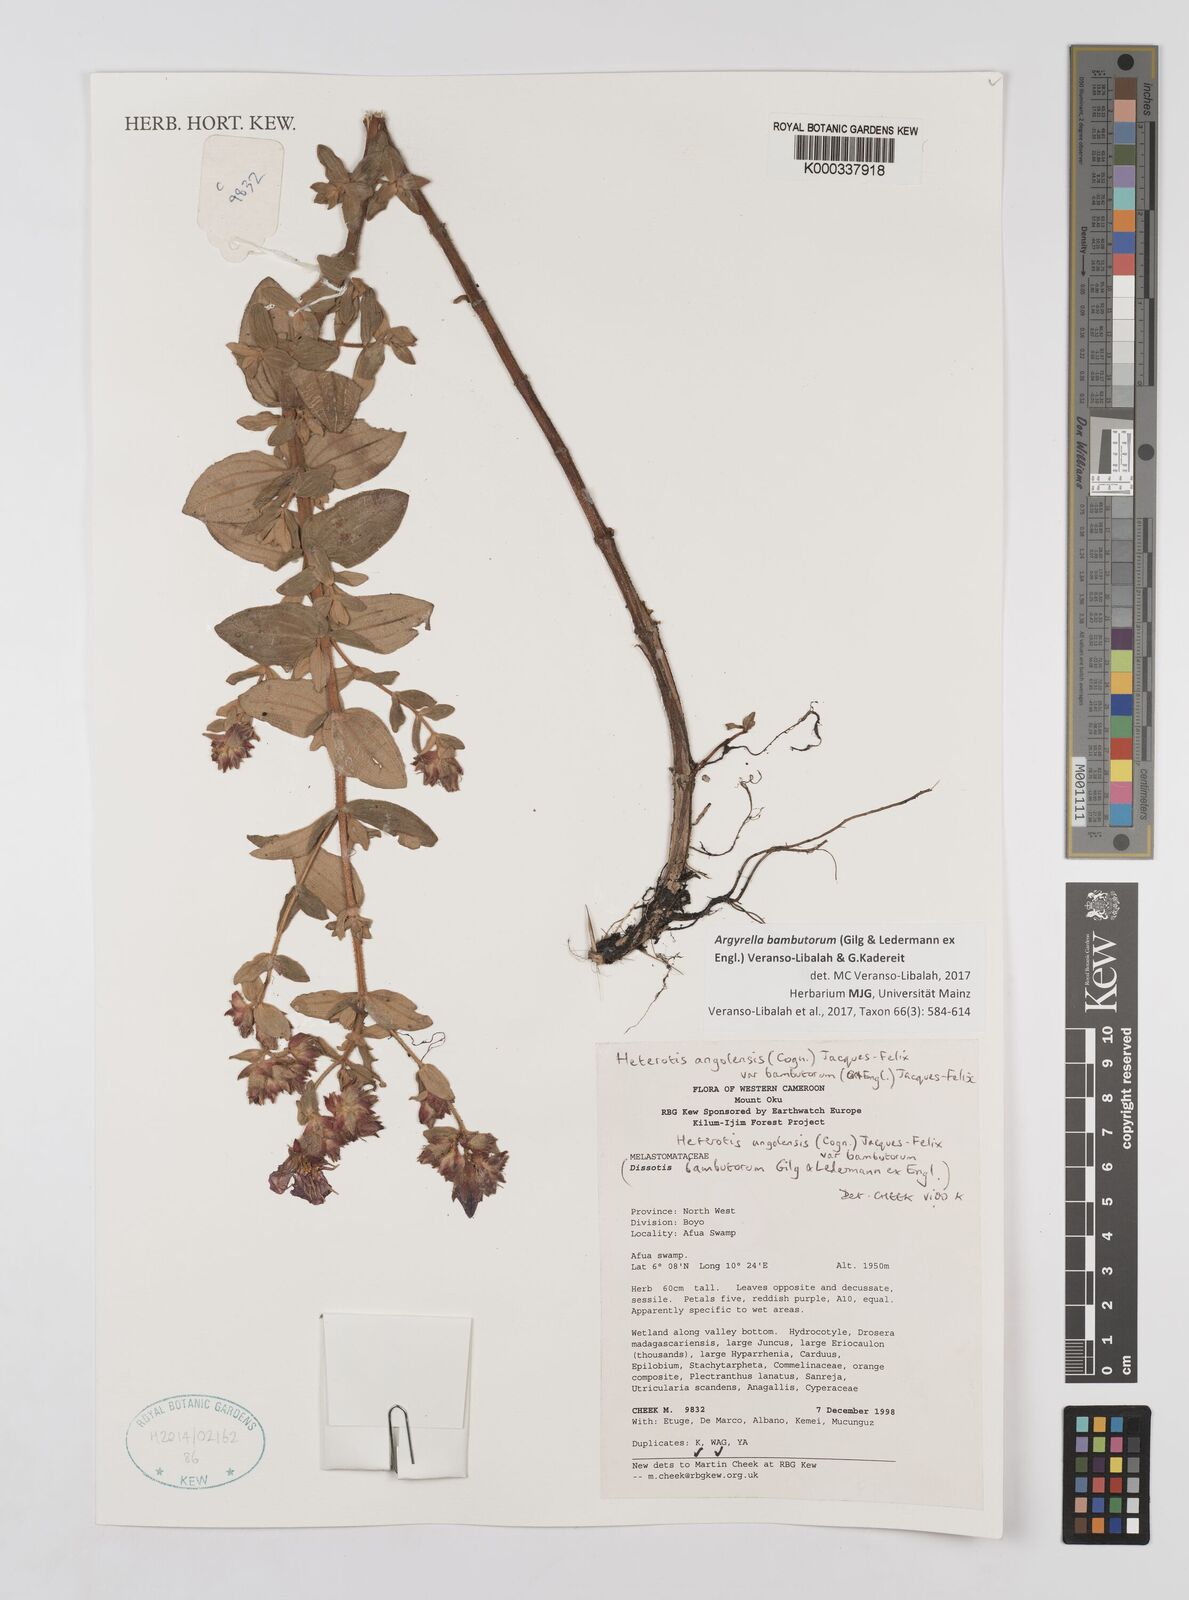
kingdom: Plantae
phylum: Tracheophyta
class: Magnoliopsida
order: Myrtales
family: Melastomataceae
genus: Argyrella
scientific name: Argyrella bambutorum
